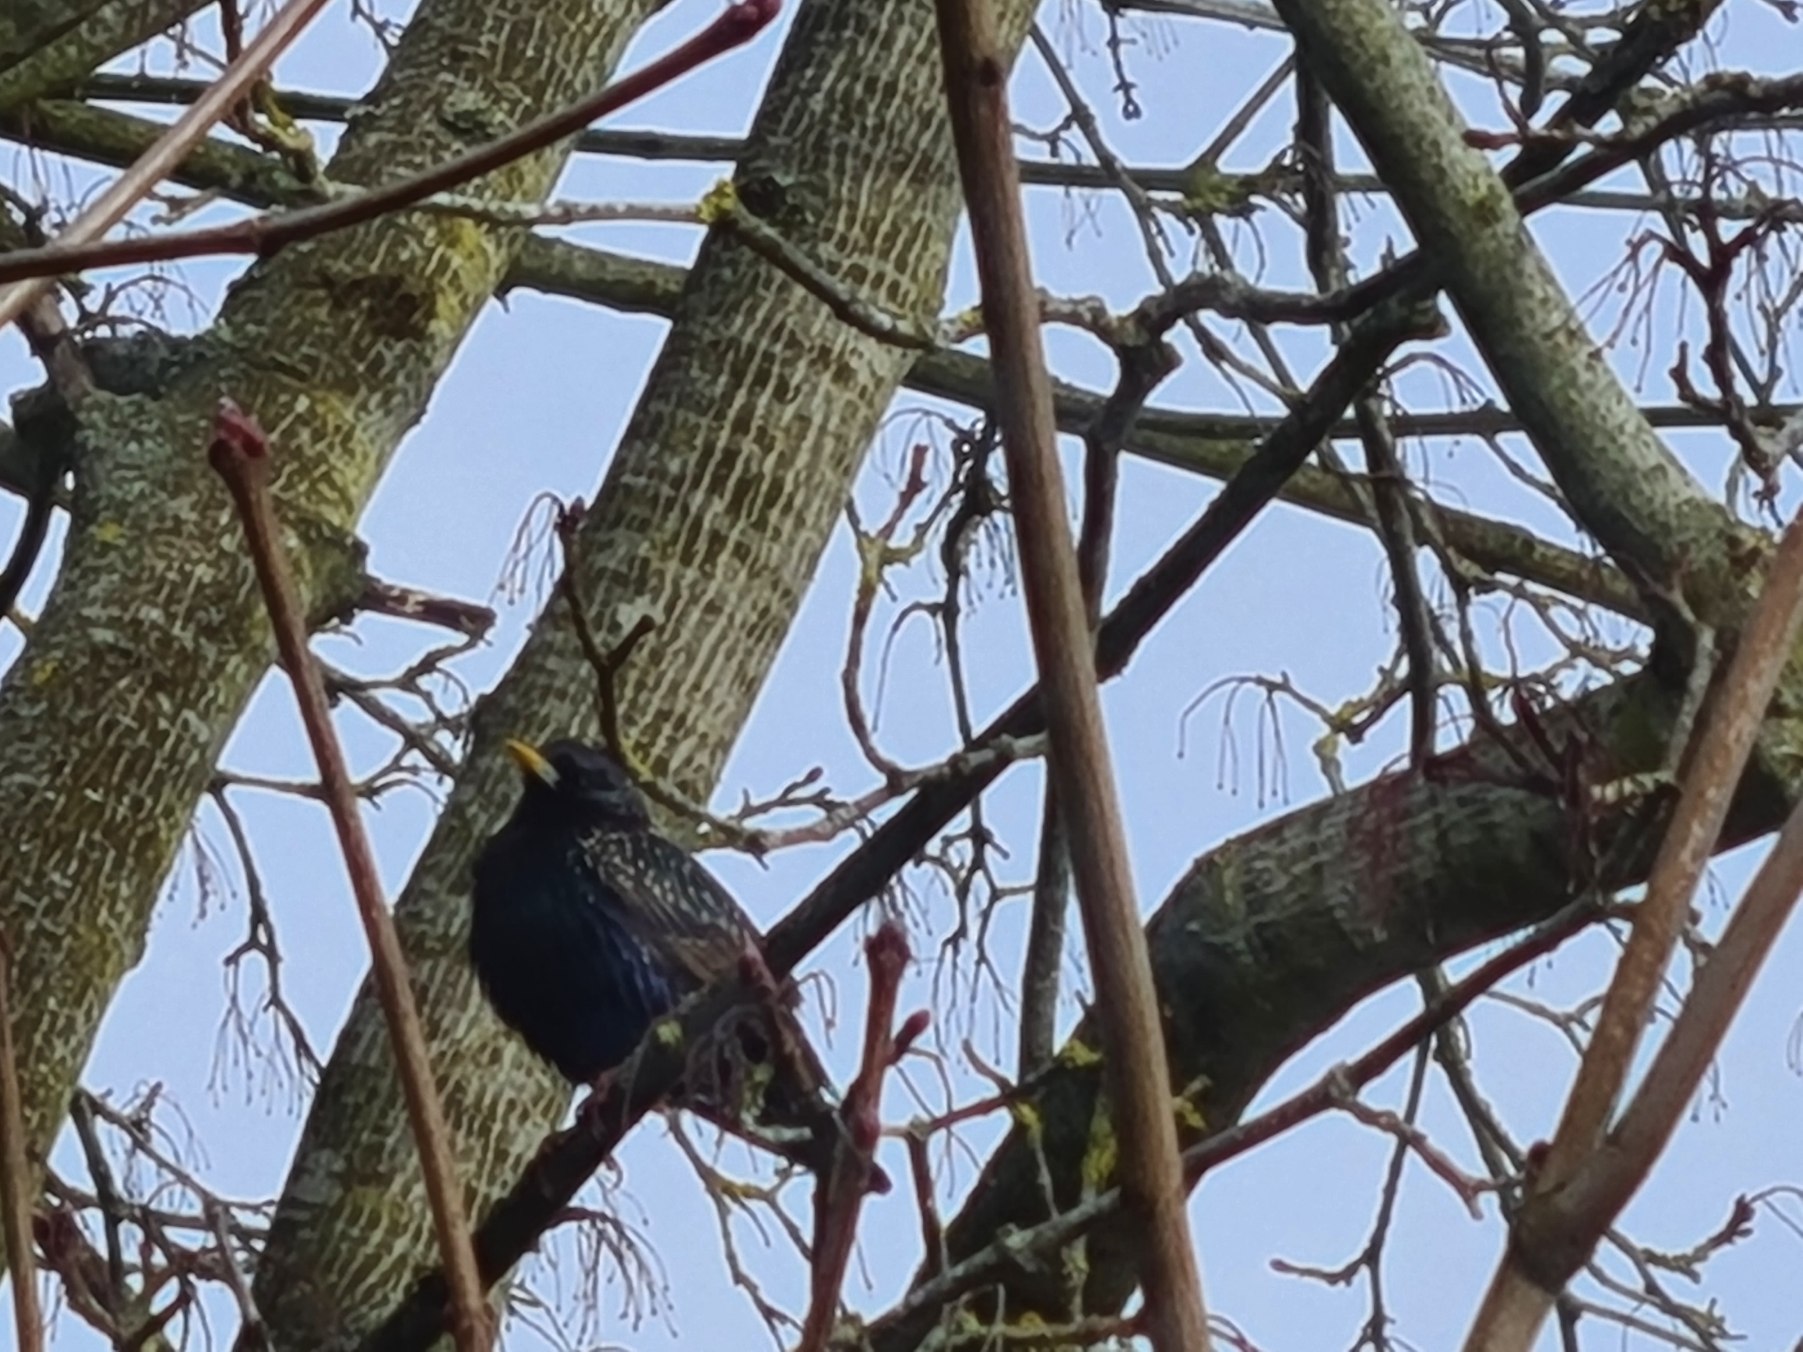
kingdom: Animalia
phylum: Chordata
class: Aves
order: Passeriformes
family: Sturnidae
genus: Sturnus
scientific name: Sturnus vulgaris
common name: Stær
